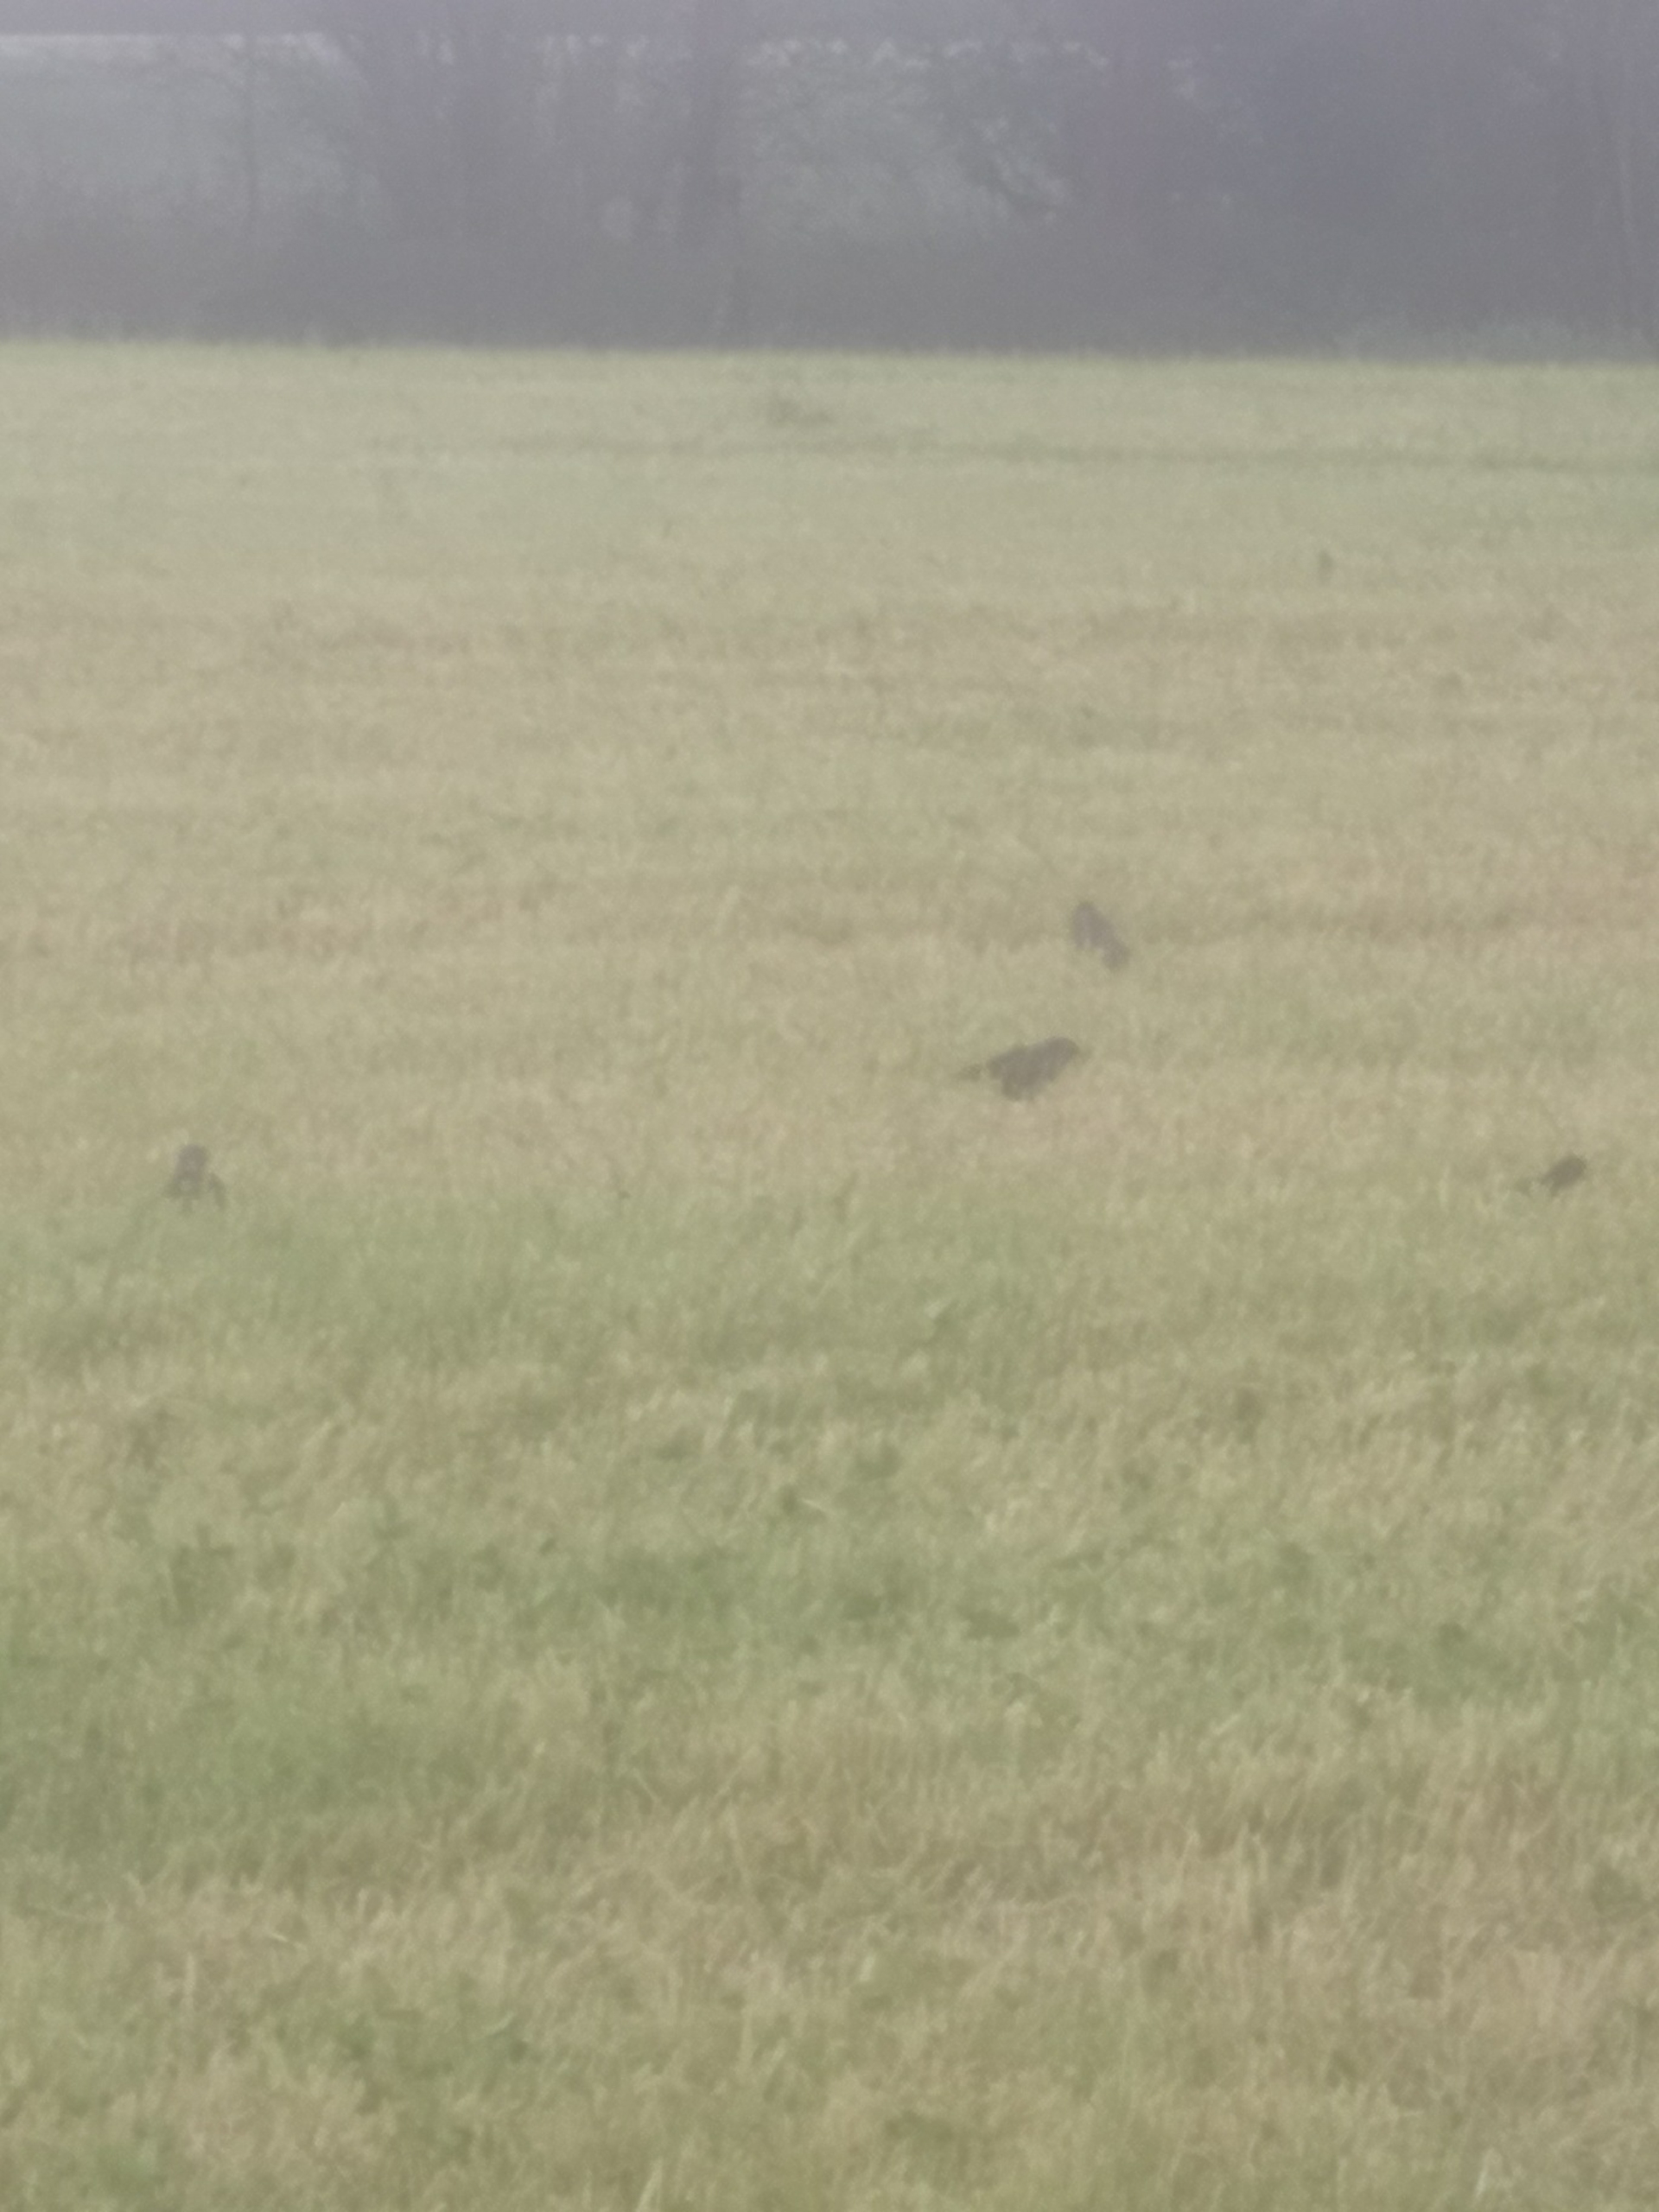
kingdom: Animalia
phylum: Chordata
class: Aves
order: Passeriformes
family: Sturnidae
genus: Sturnus
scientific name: Sturnus vulgaris
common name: Stær
